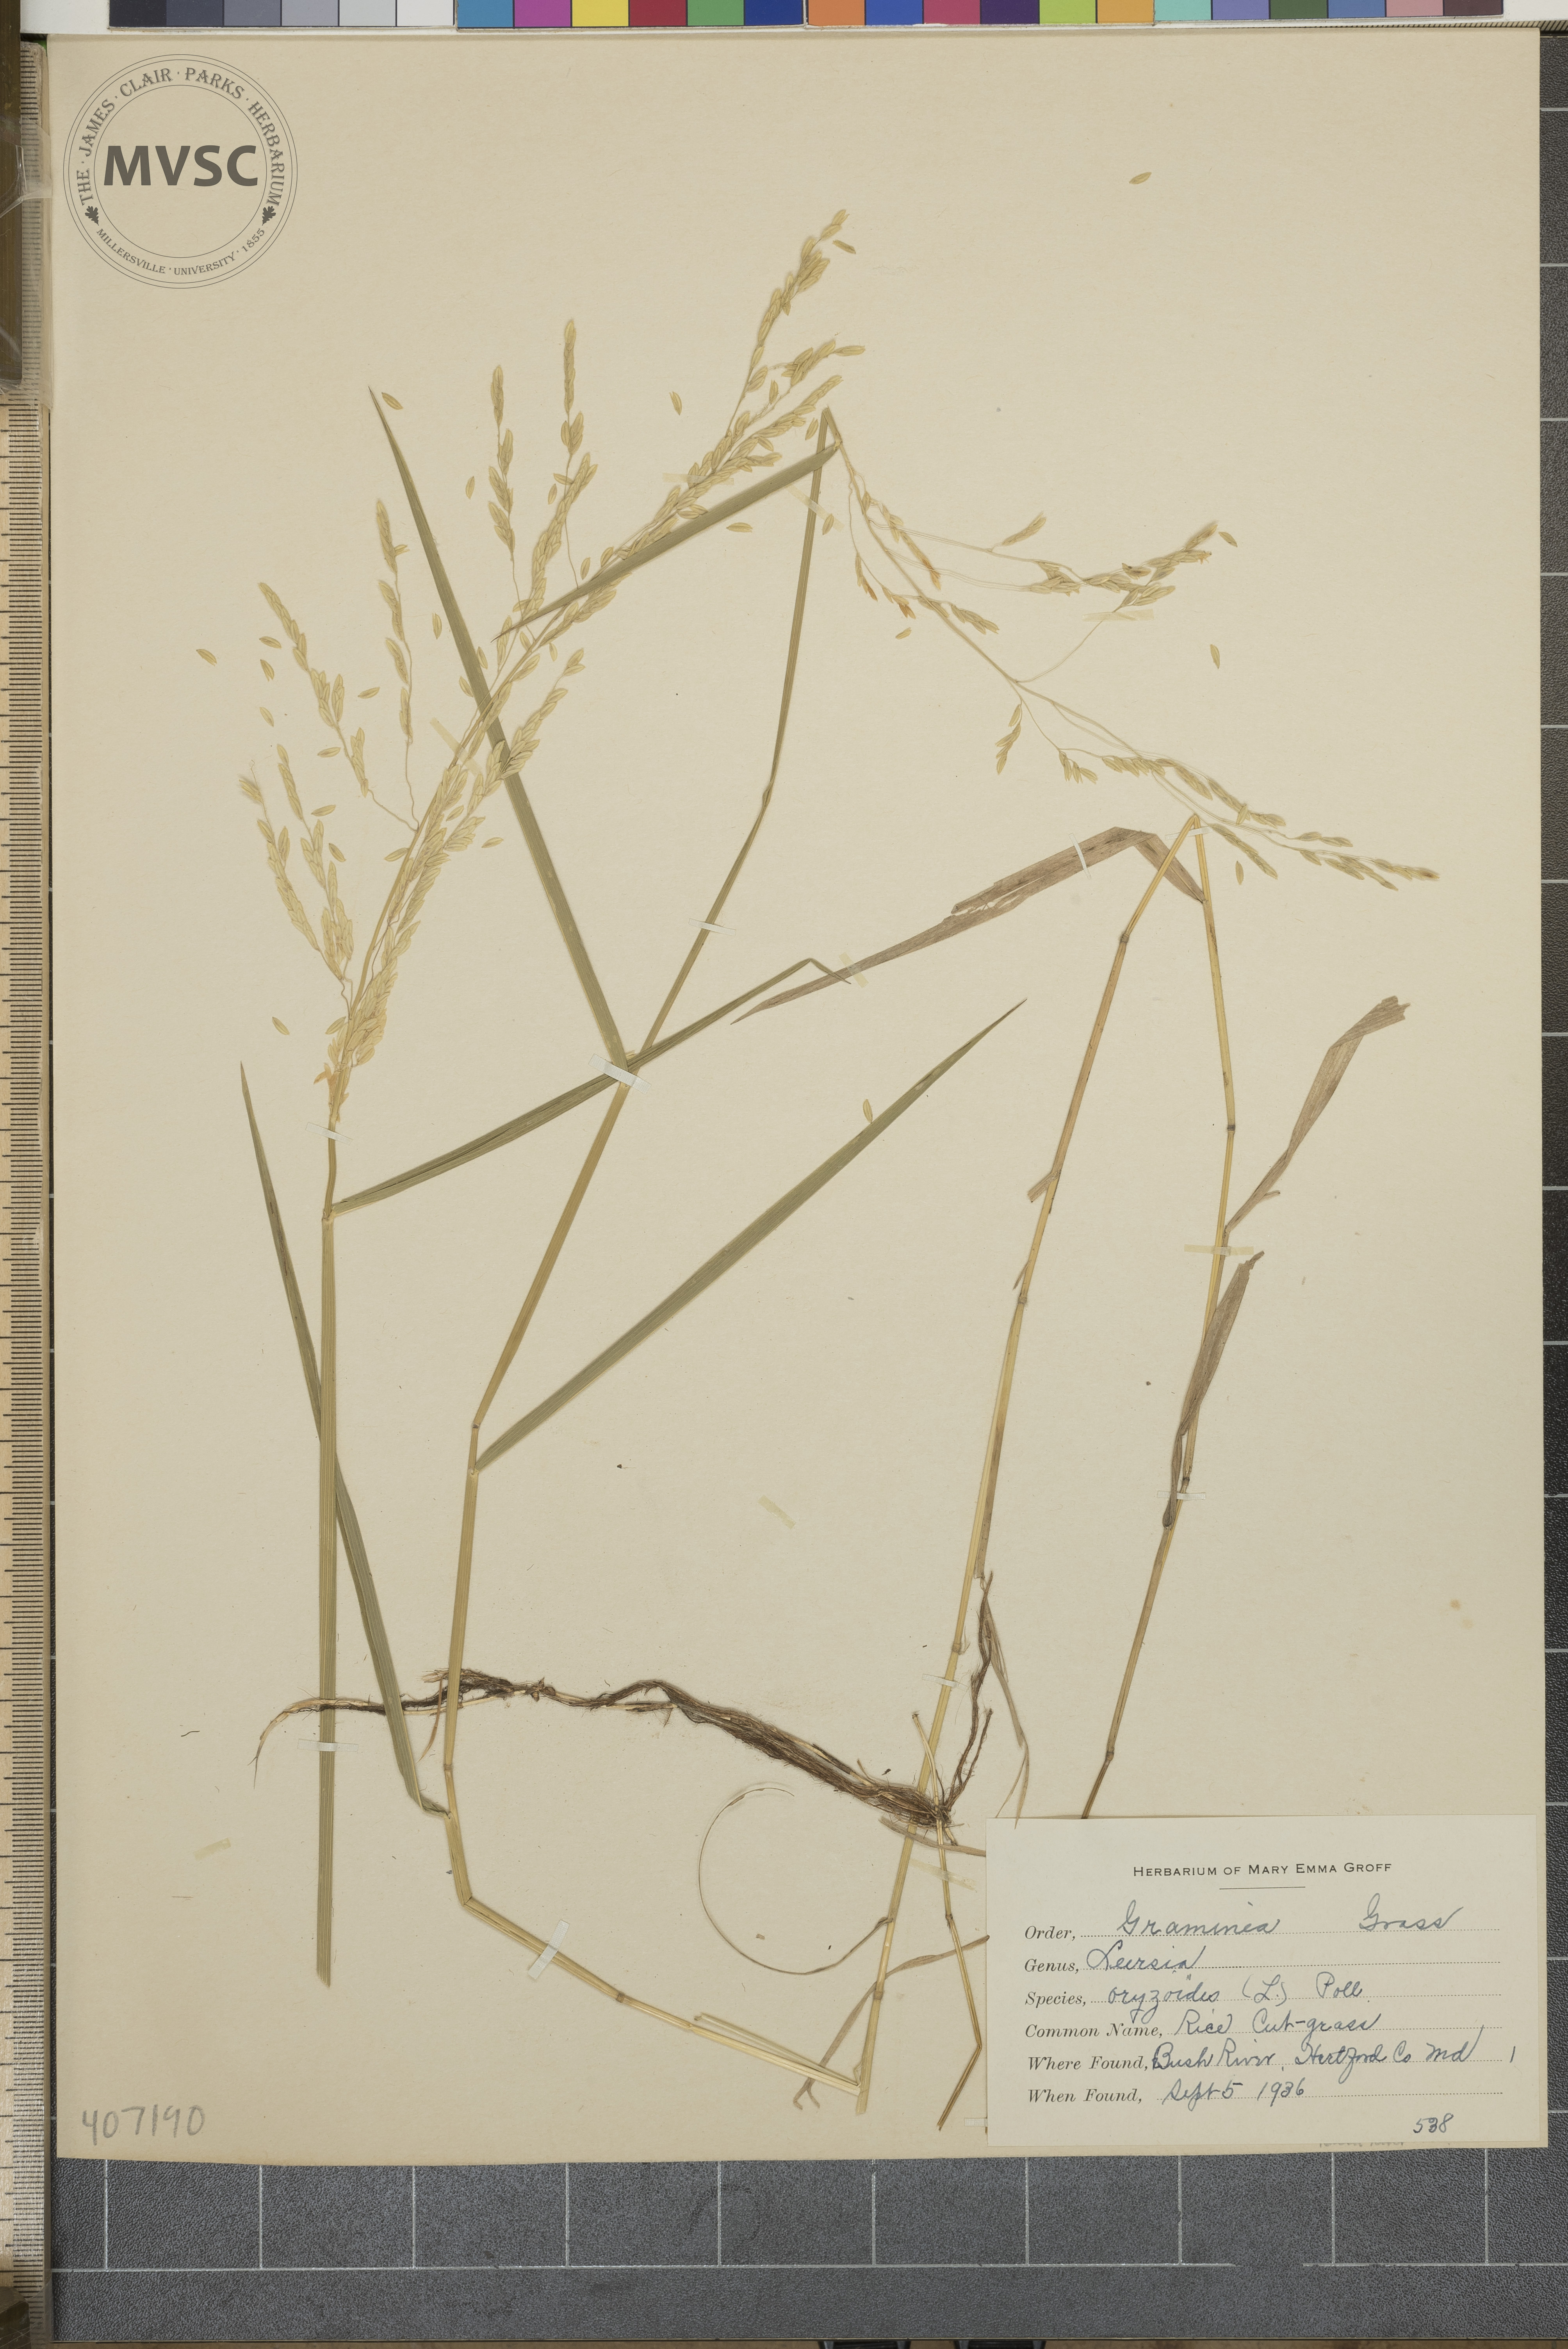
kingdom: Plantae
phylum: Tracheophyta
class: Liliopsida
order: Poales
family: Poaceae
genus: Leersia
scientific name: Leersia oryzoides
